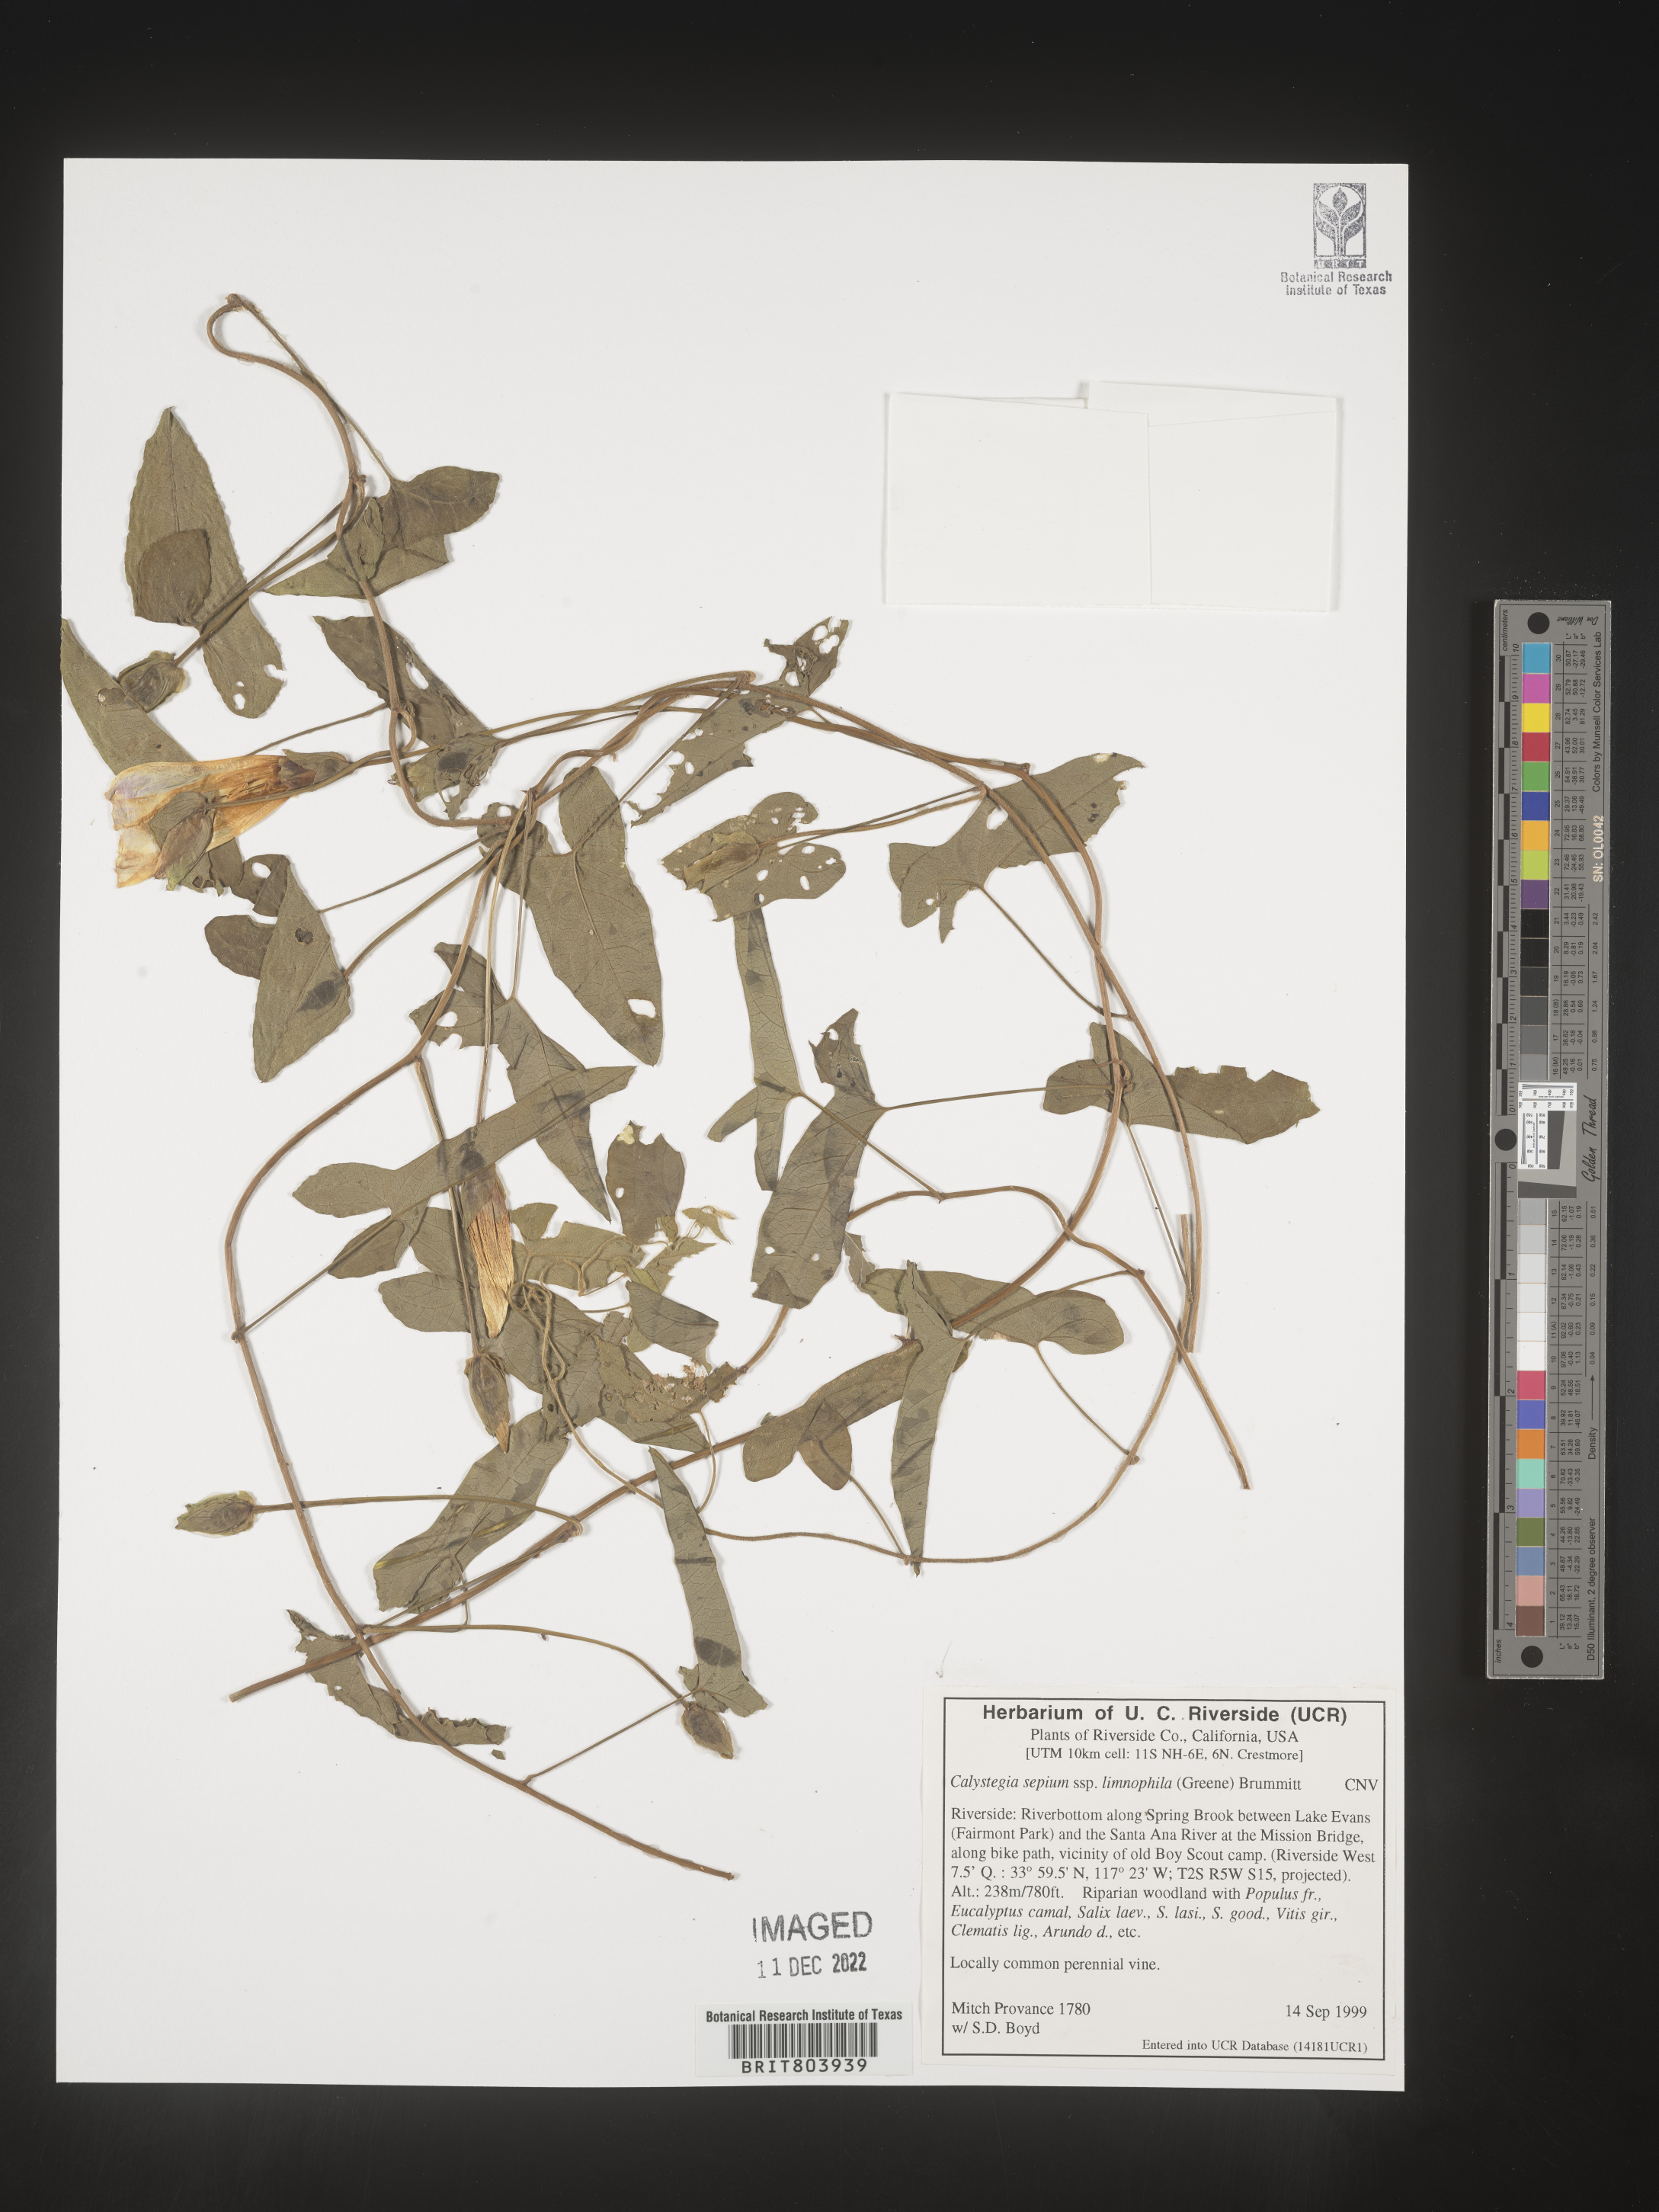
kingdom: Plantae
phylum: Tracheophyta
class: Magnoliopsida
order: Solanales
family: Convolvulaceae
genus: Calystegia
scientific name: Calystegia sepium
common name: Hedge bindweed
